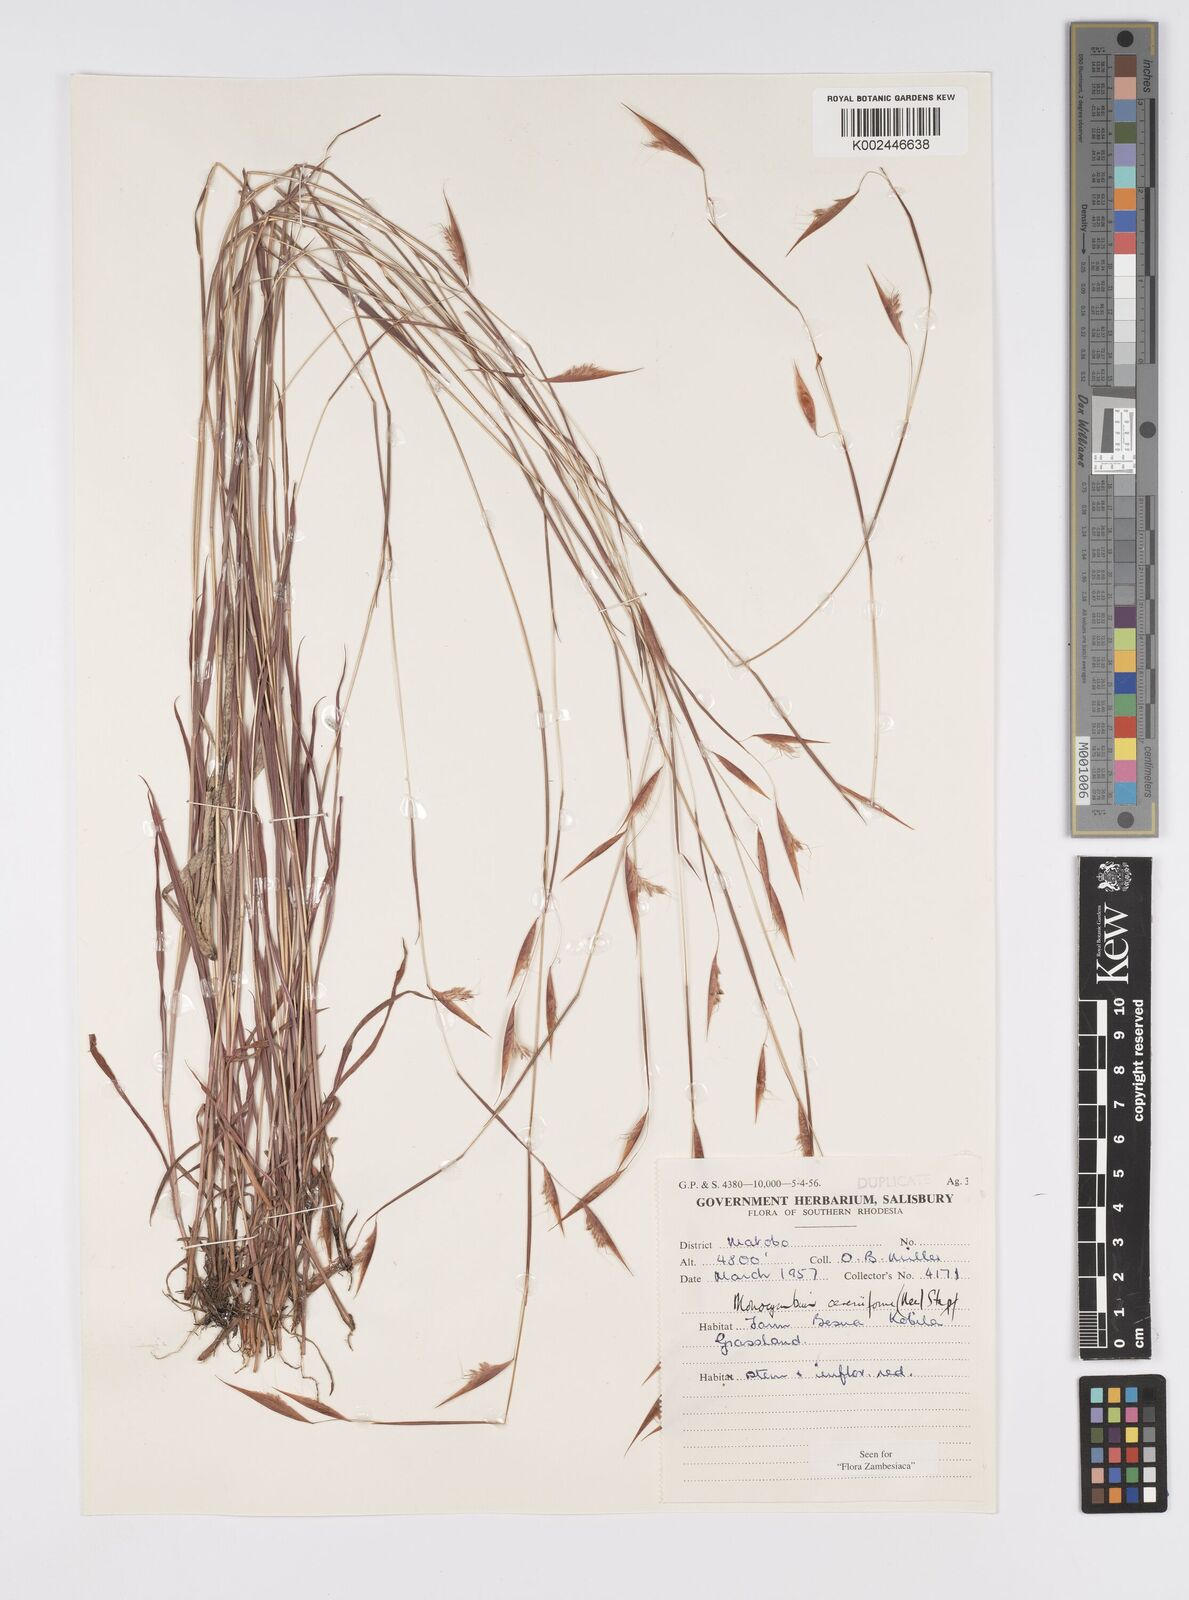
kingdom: Plantae
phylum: Tracheophyta
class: Liliopsida
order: Poales
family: Poaceae
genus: Monocymbium
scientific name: Monocymbium ceresiiforme
